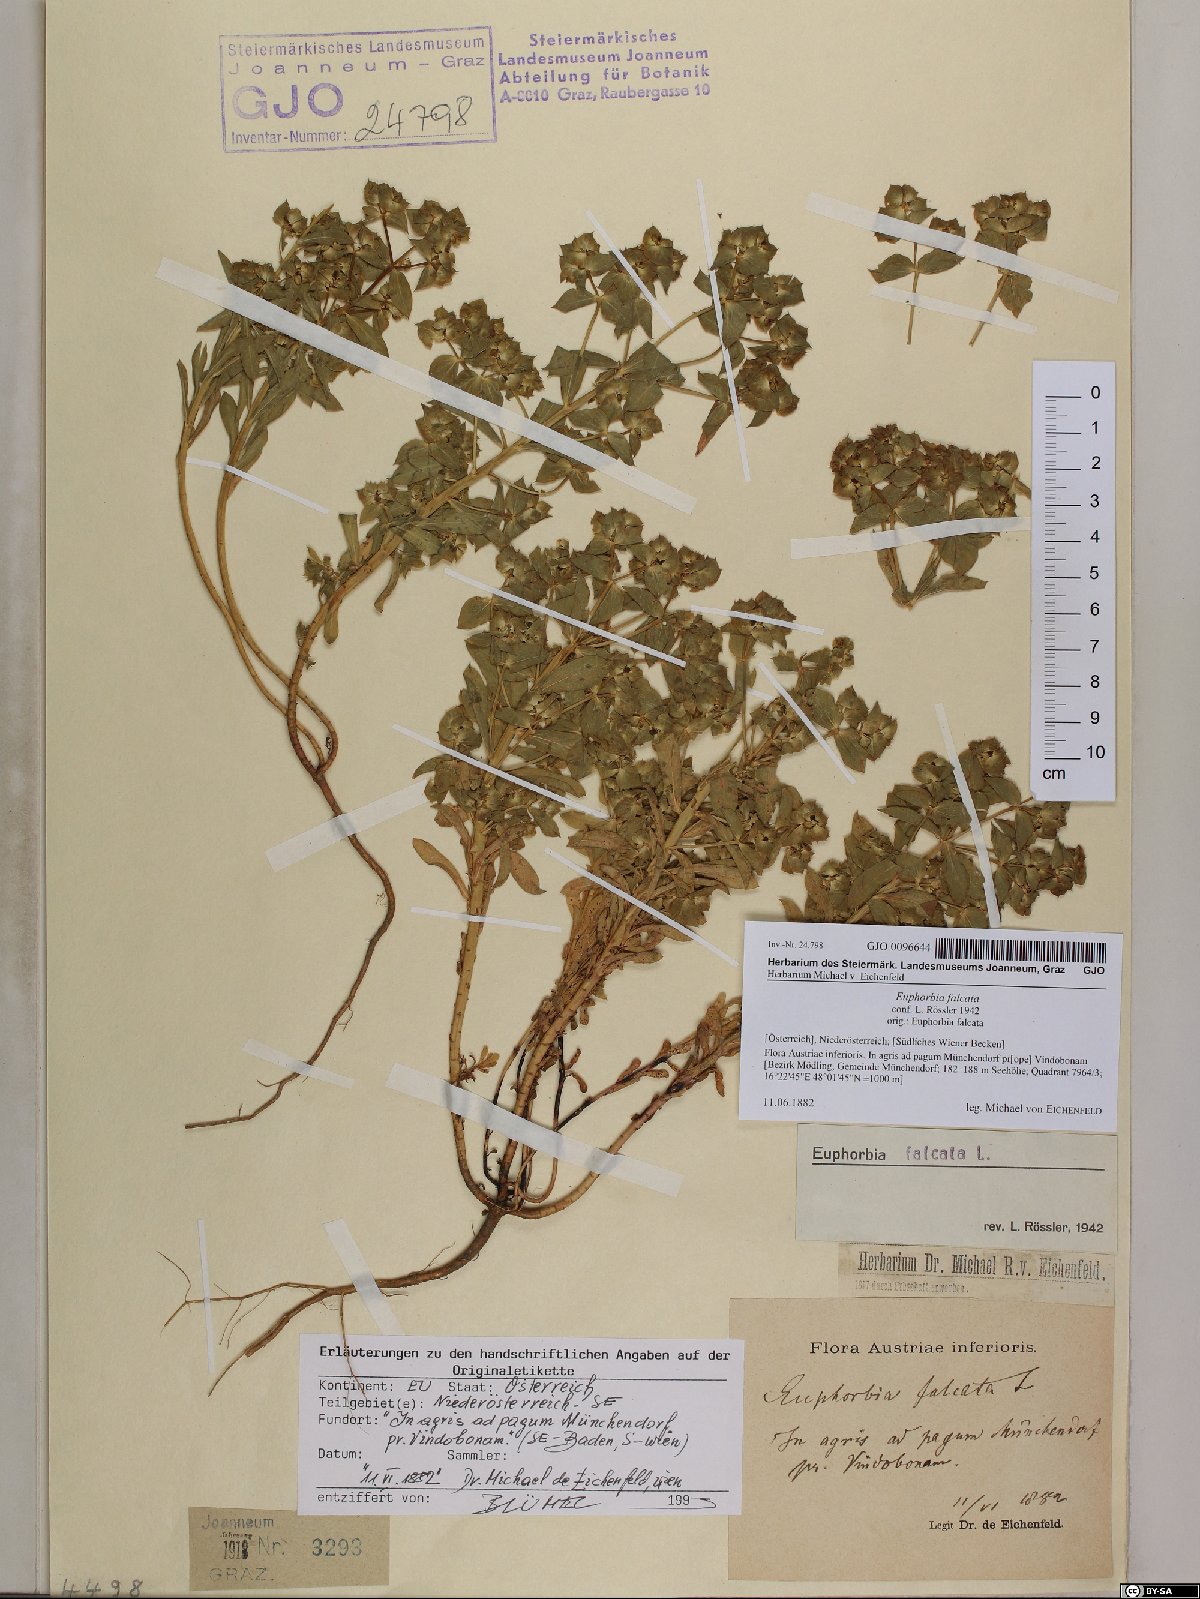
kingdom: Plantae
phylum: Tracheophyta
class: Magnoliopsida
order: Malpighiales
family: Euphorbiaceae
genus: Euphorbia
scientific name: Euphorbia falcata
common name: Sickle spurge
